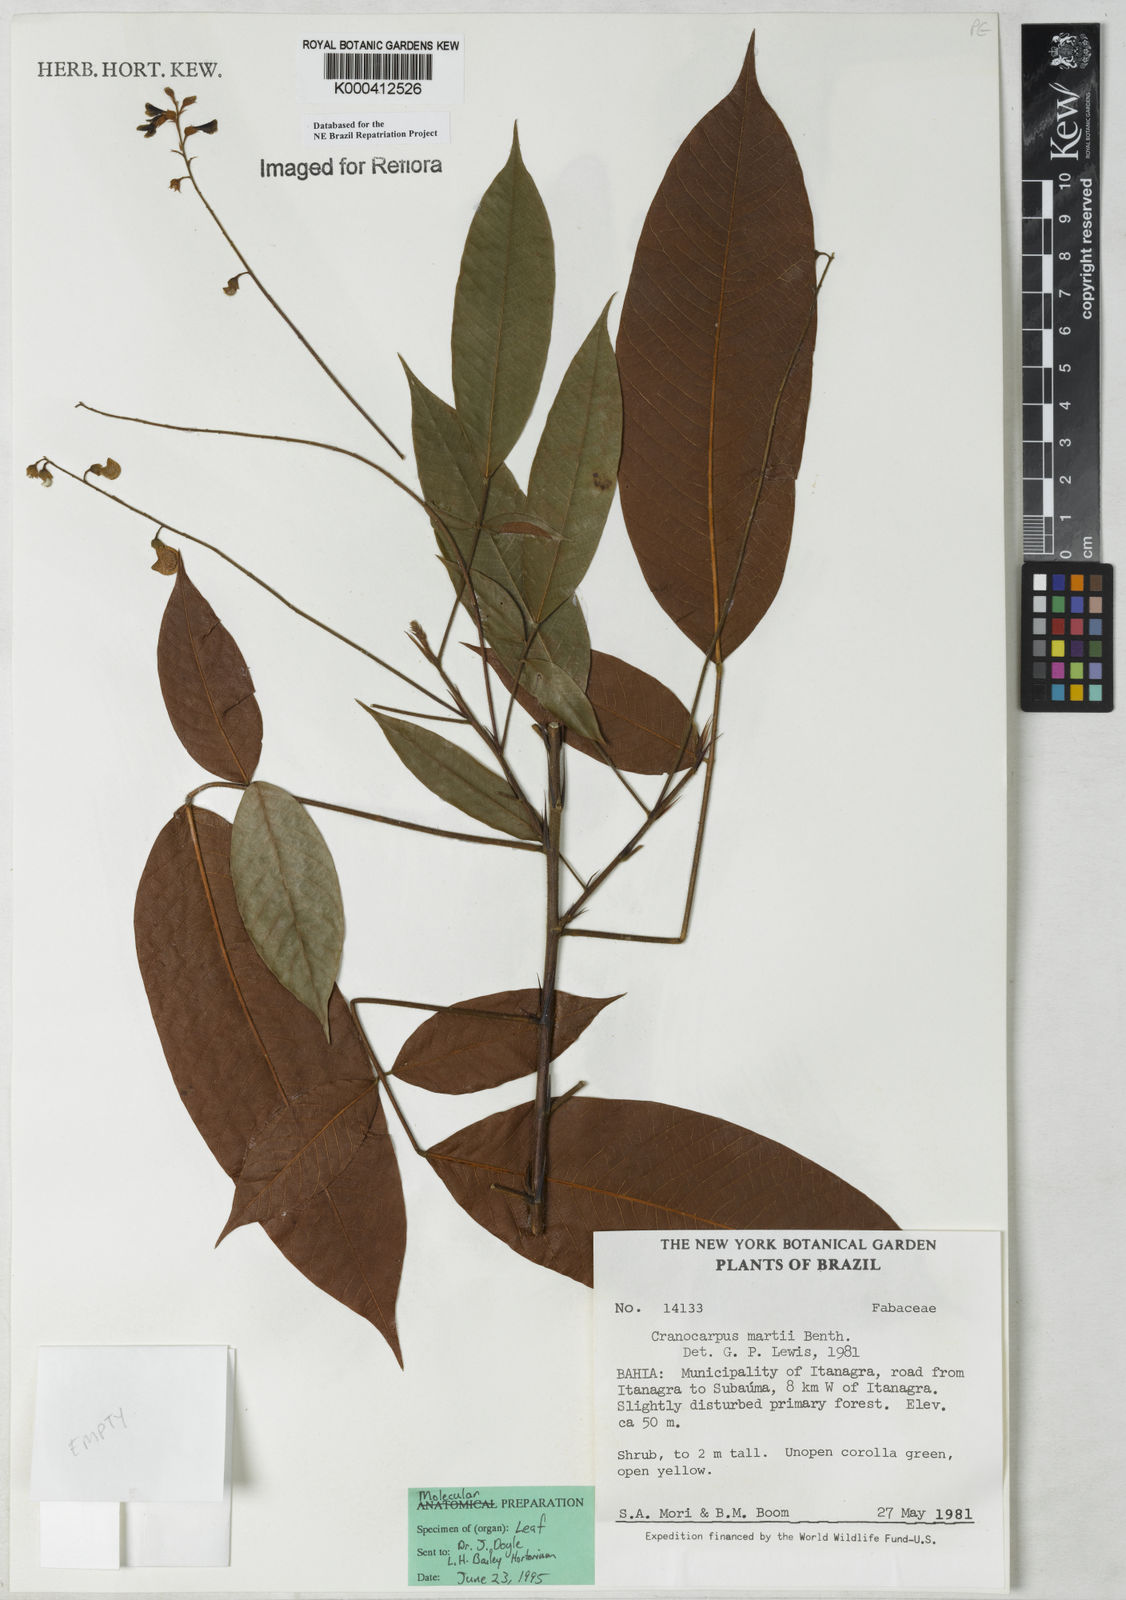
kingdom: Plantae
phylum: Tracheophyta
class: Magnoliopsida
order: Fabales
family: Fabaceae
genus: Cranocarpus
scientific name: Cranocarpus martii
